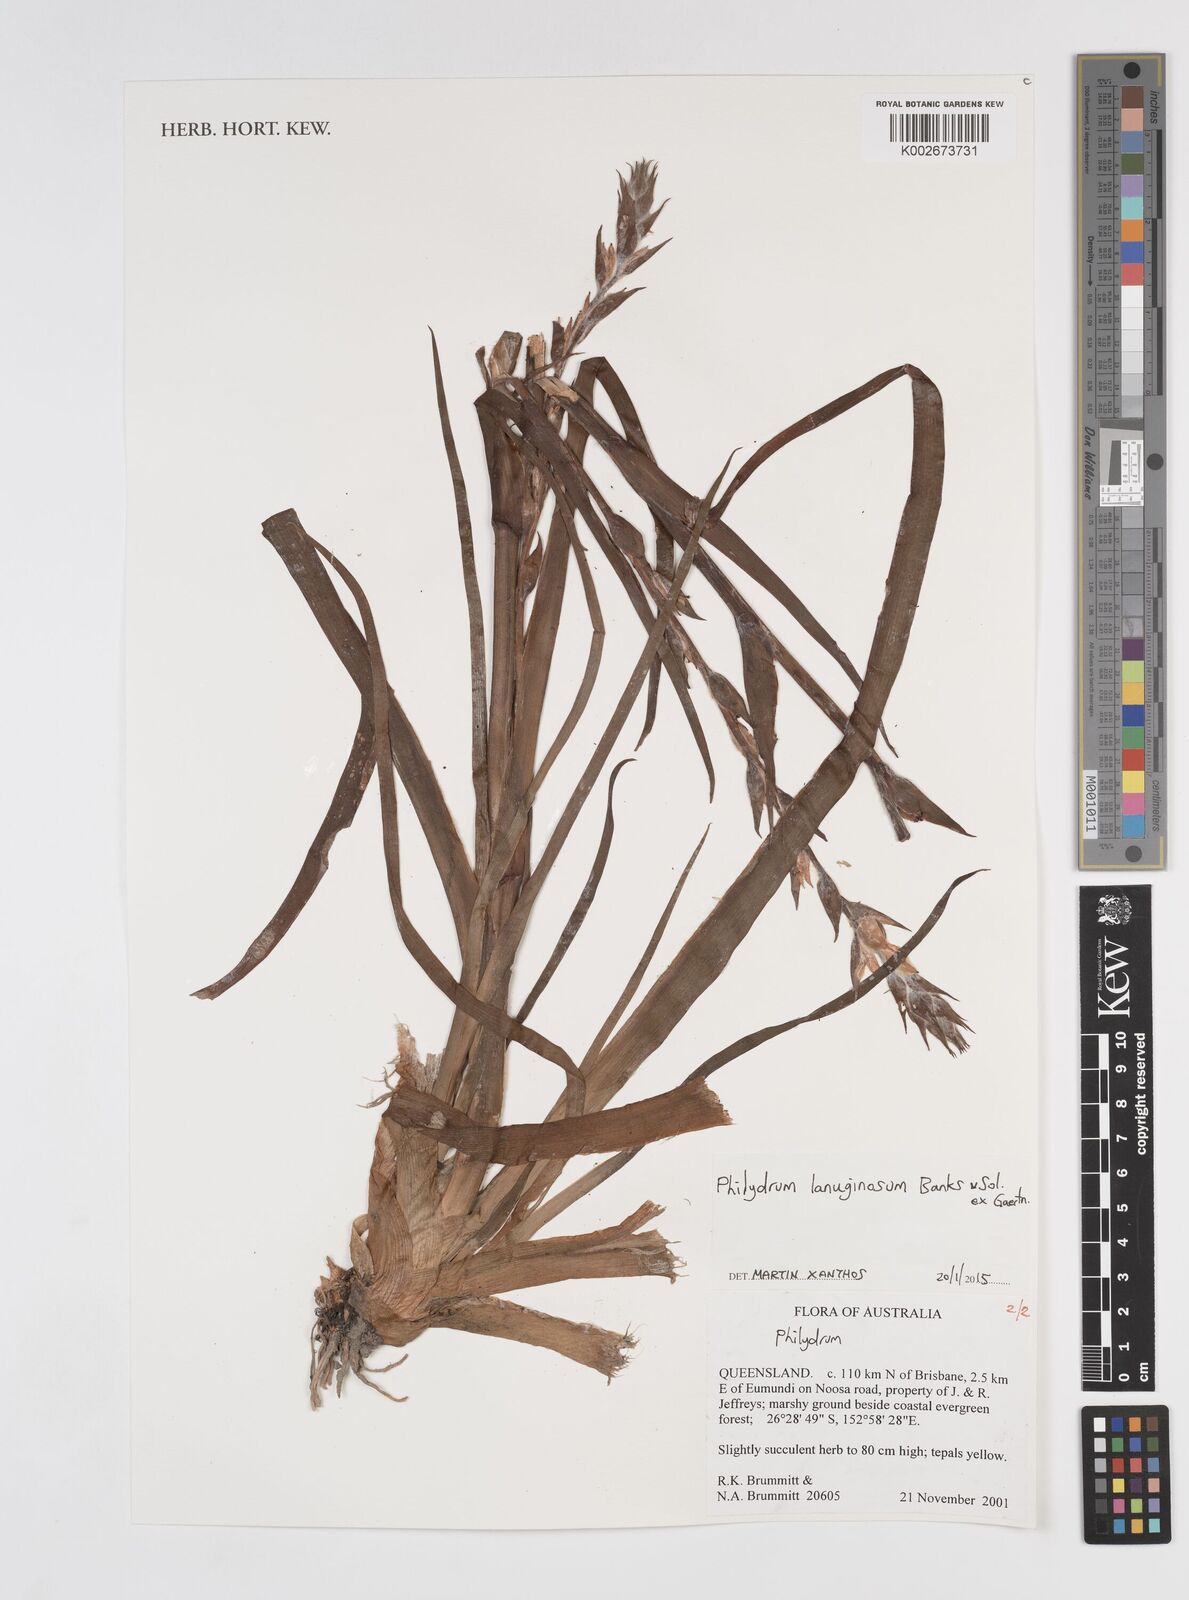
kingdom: Plantae
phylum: Tracheophyta
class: Liliopsida
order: Commelinales
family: Philydraceae
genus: Philydrum
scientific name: Philydrum lanuginosum
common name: Woolly frog's mouth
